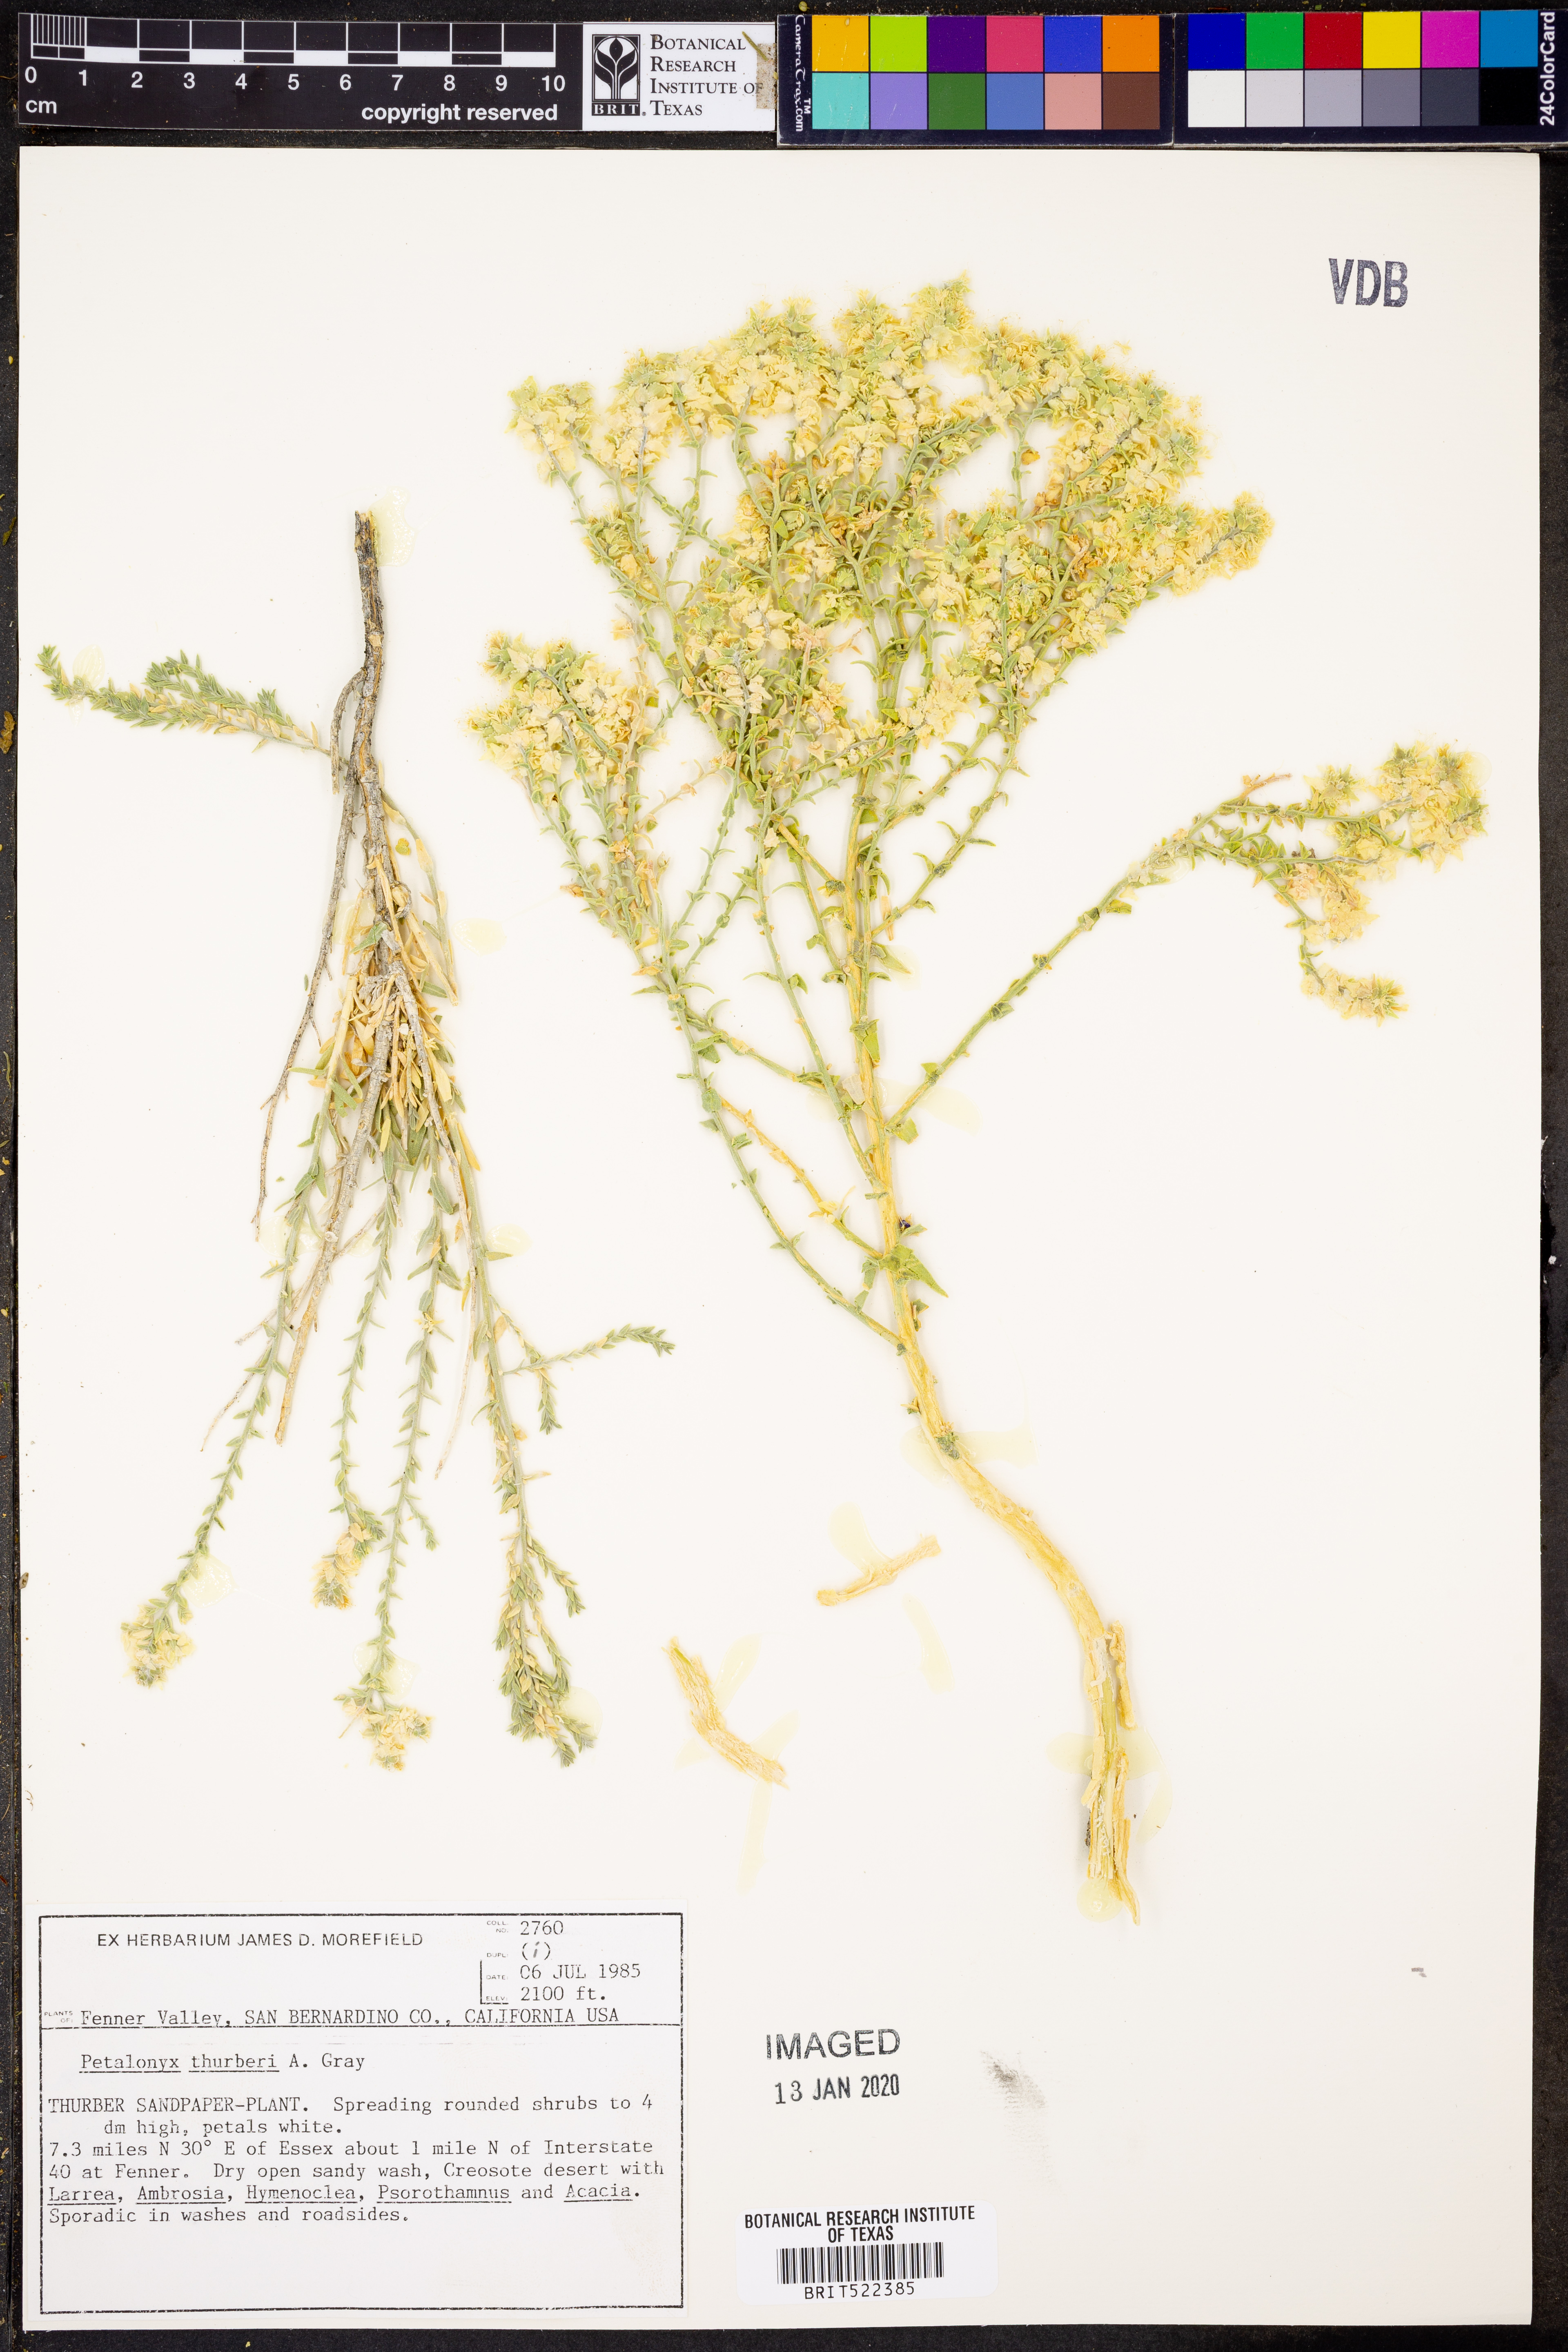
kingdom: Plantae
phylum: Tracheophyta
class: Magnoliopsida
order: Cornales
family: Loasaceae
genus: Petalonyx
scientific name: Petalonyx thurberi
